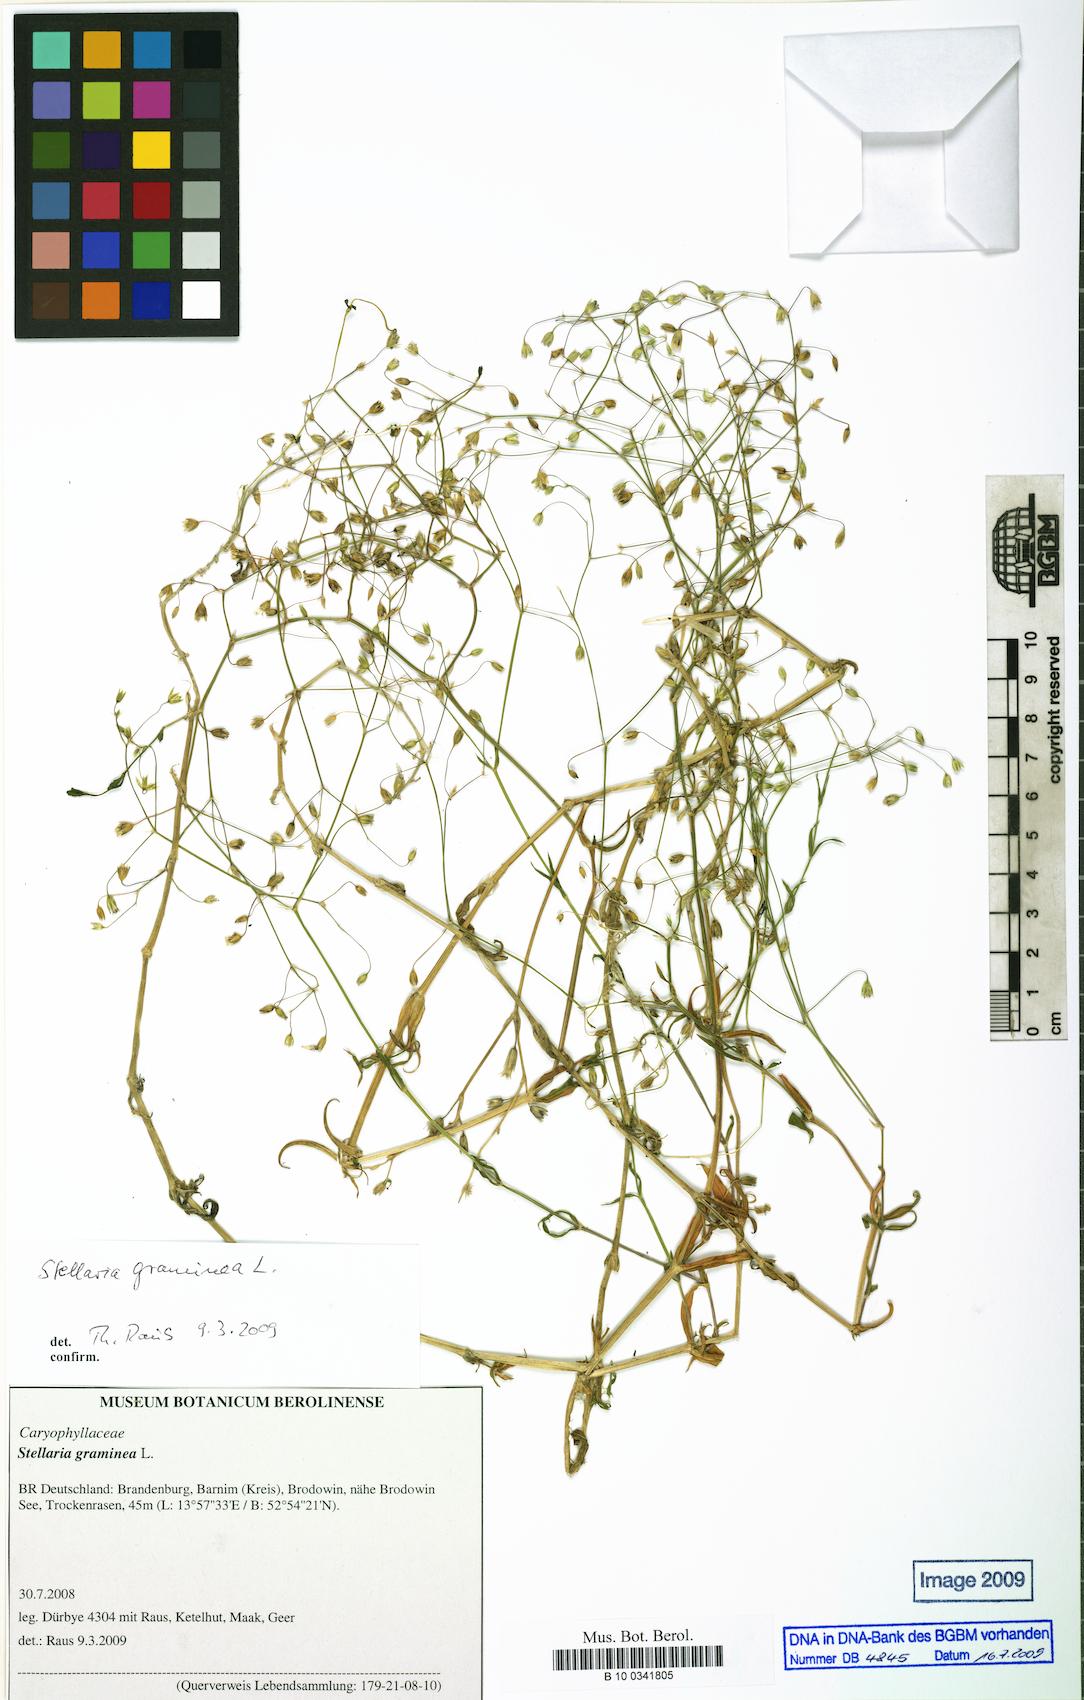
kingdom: Plantae
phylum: Tracheophyta
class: Magnoliopsida
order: Caryophyllales
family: Caryophyllaceae
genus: Stellaria
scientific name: Stellaria graminea
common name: Grass-like starwort
